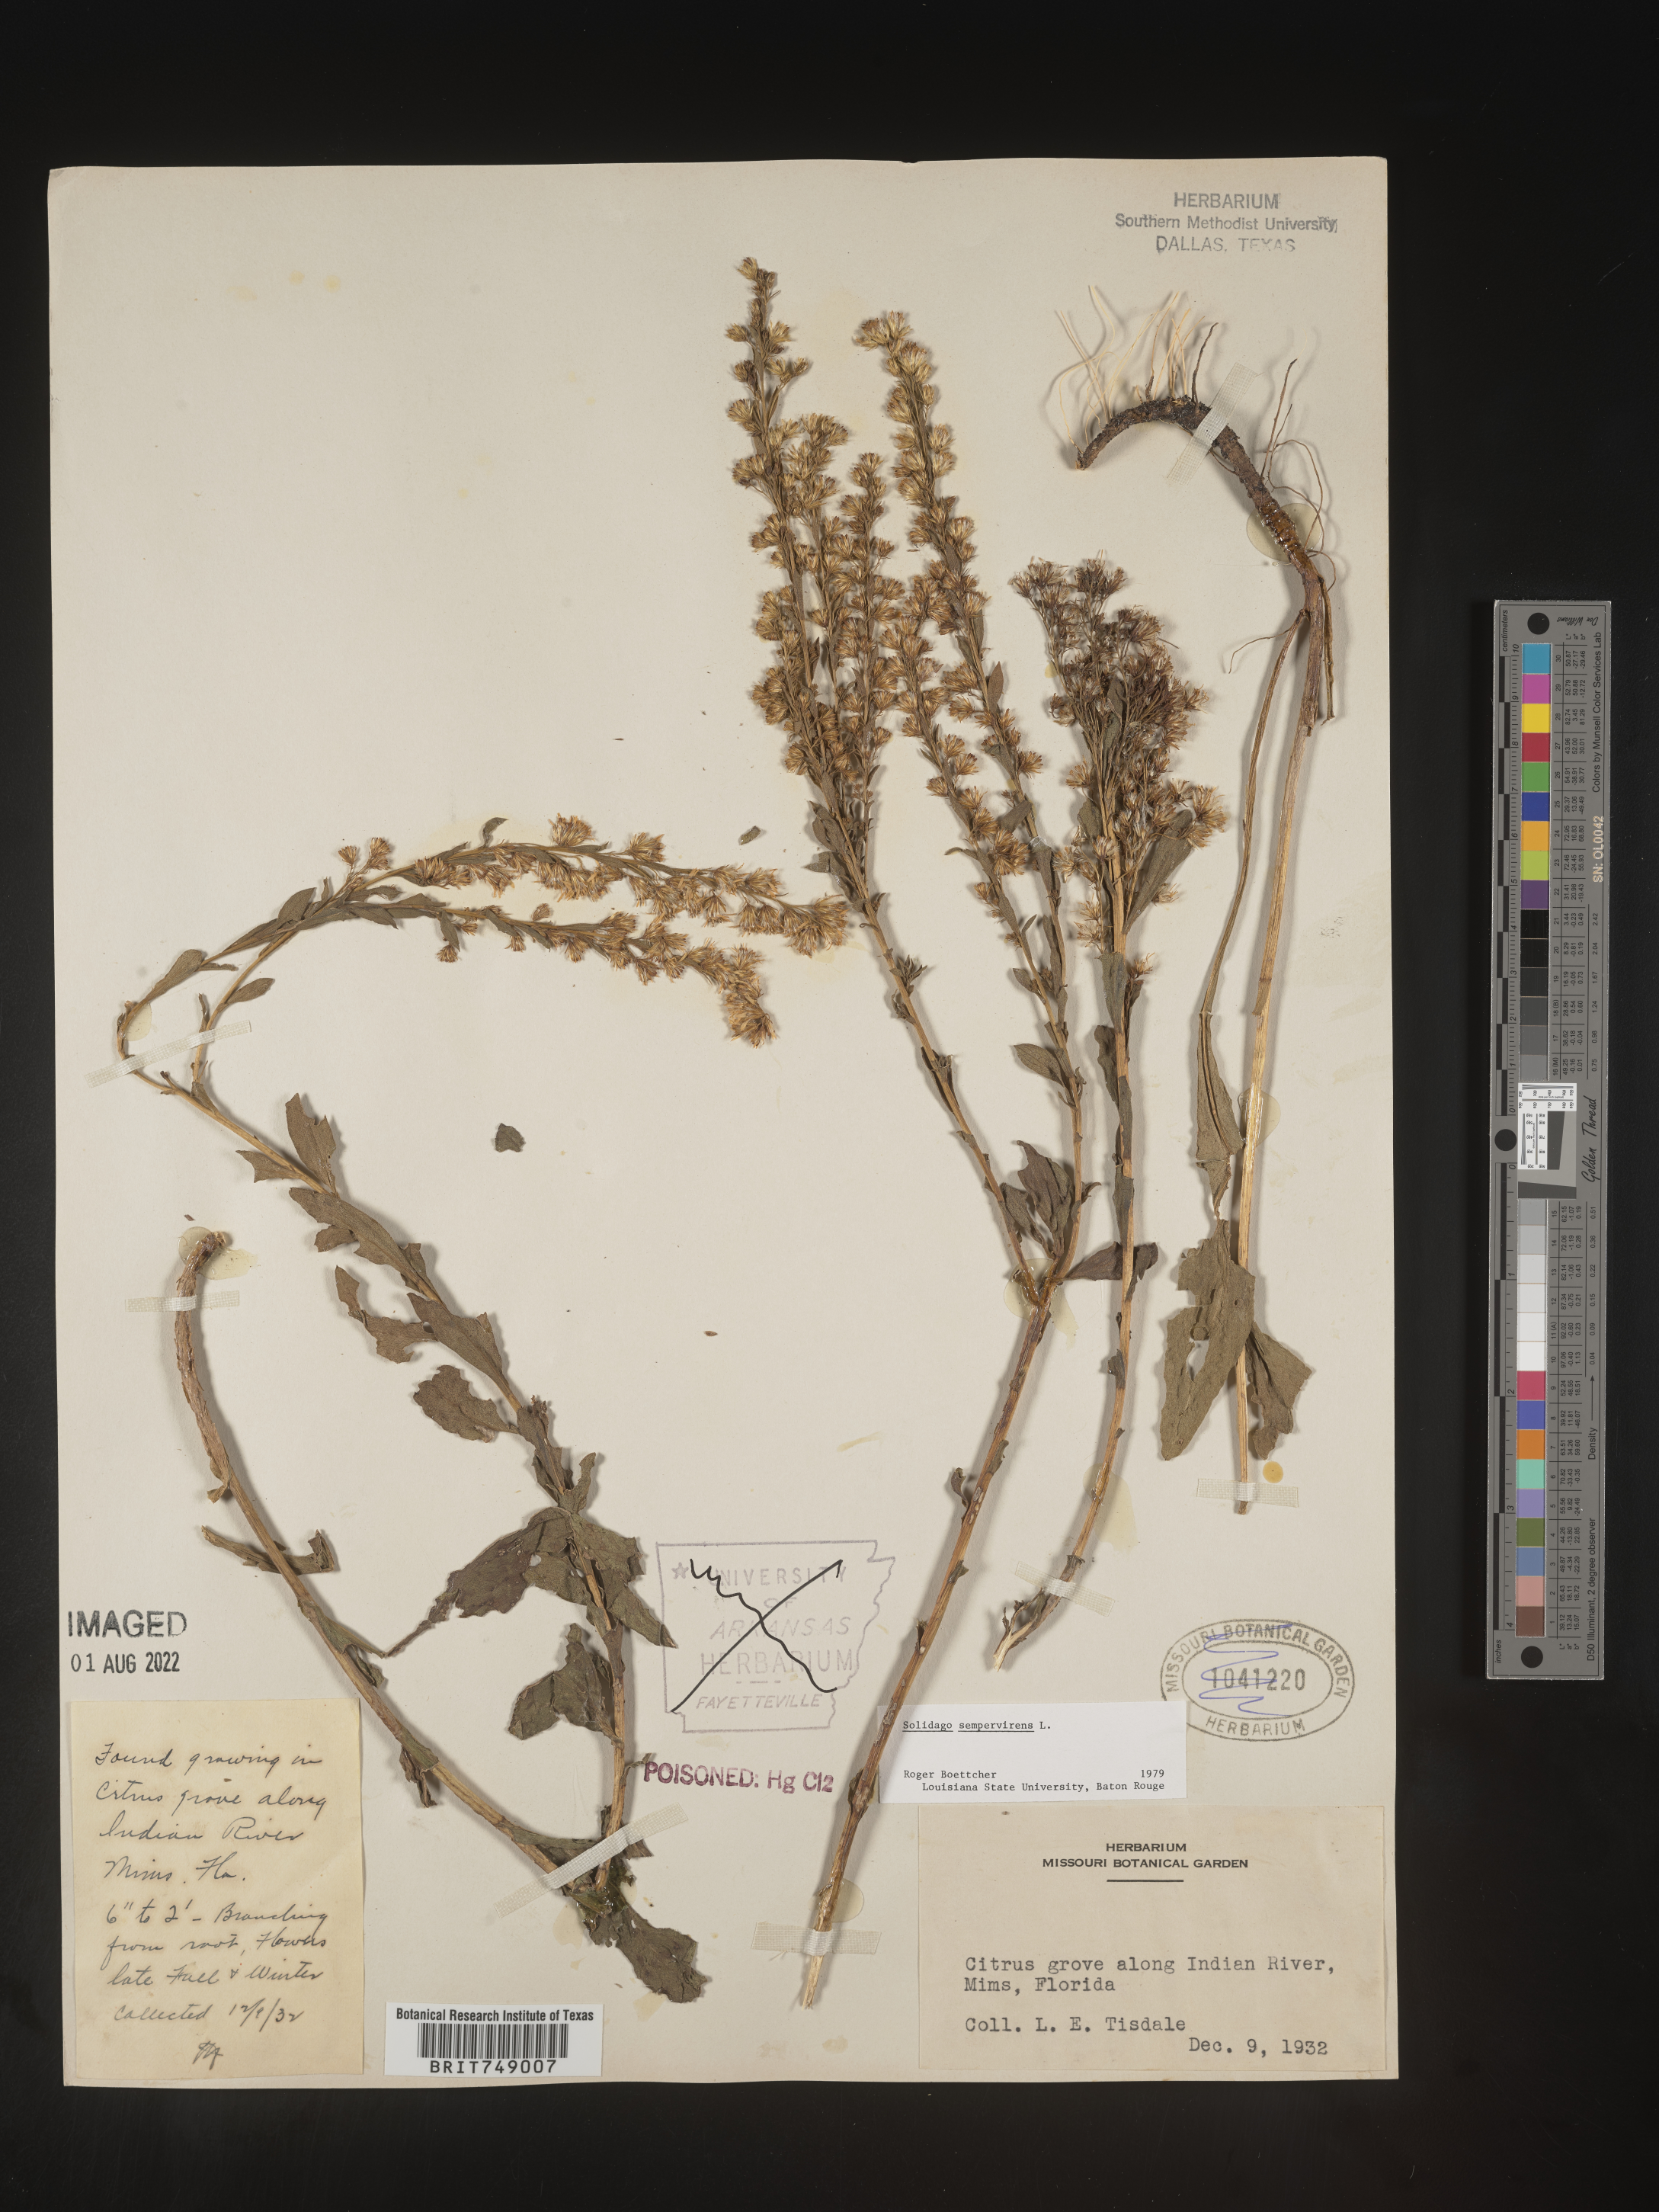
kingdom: Plantae
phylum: Tracheophyta
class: Magnoliopsida
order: Asterales
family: Asteraceae
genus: Solidago
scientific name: Solidago sempervirens
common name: Salt-marsh goldenrod
